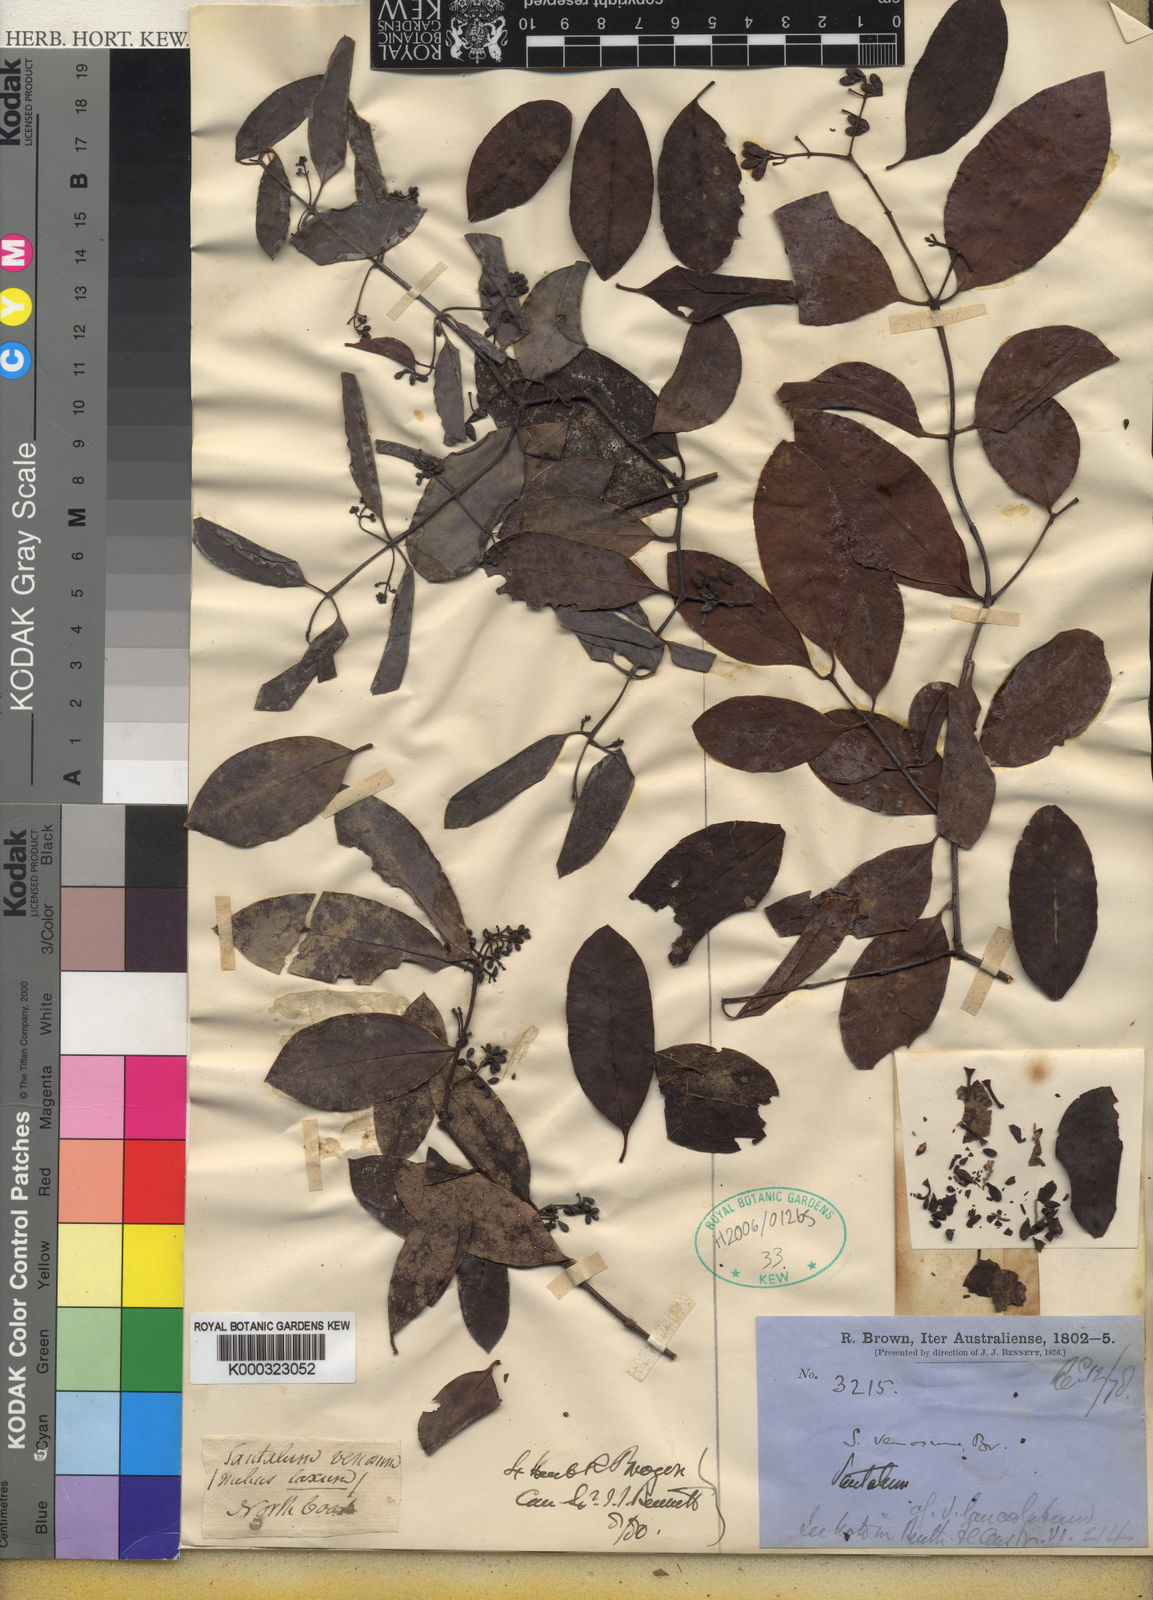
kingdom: Plantae
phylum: Tracheophyta
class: Magnoliopsida
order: Santalales
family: Santalaceae
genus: Santalum
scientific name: Santalum lanceolatum
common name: Ankwerley
